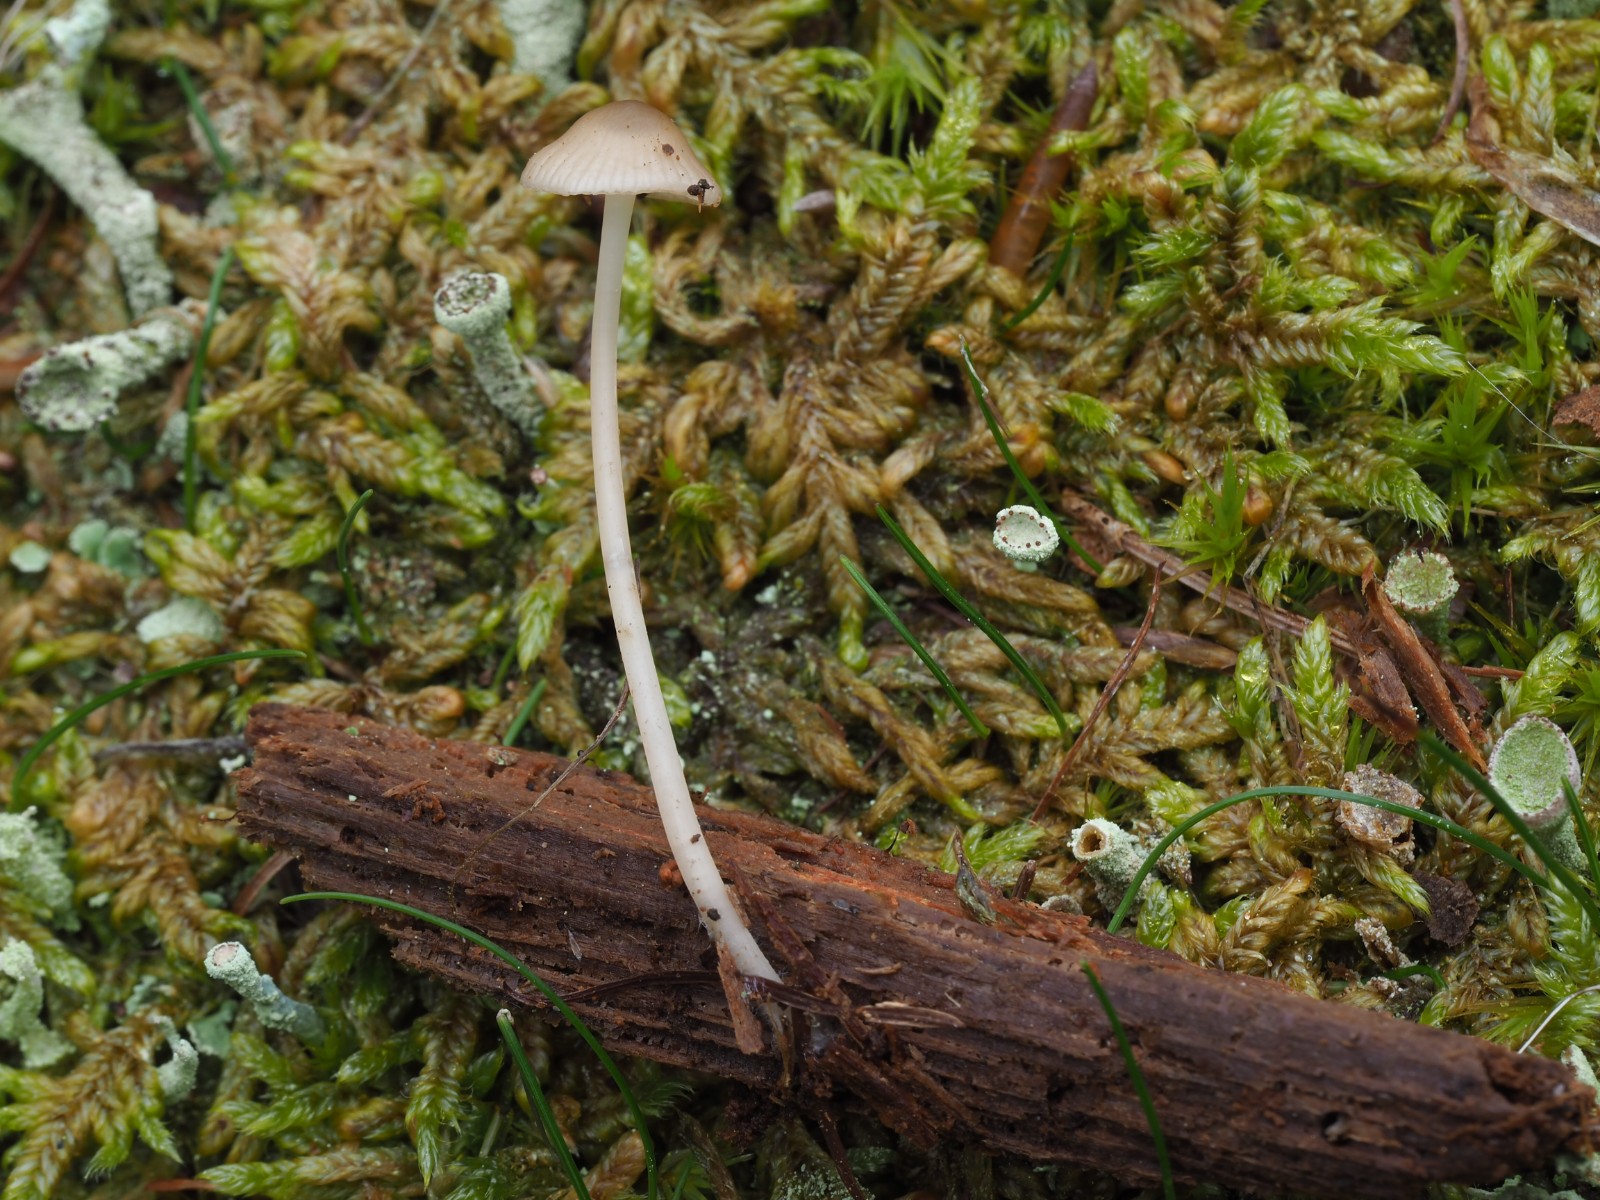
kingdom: Fungi
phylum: Basidiomycota
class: Agaricomycetes
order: Agaricales
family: Porotheleaceae
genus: Phloeomana
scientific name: Phloeomana hiemalis
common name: sen huesvamp
